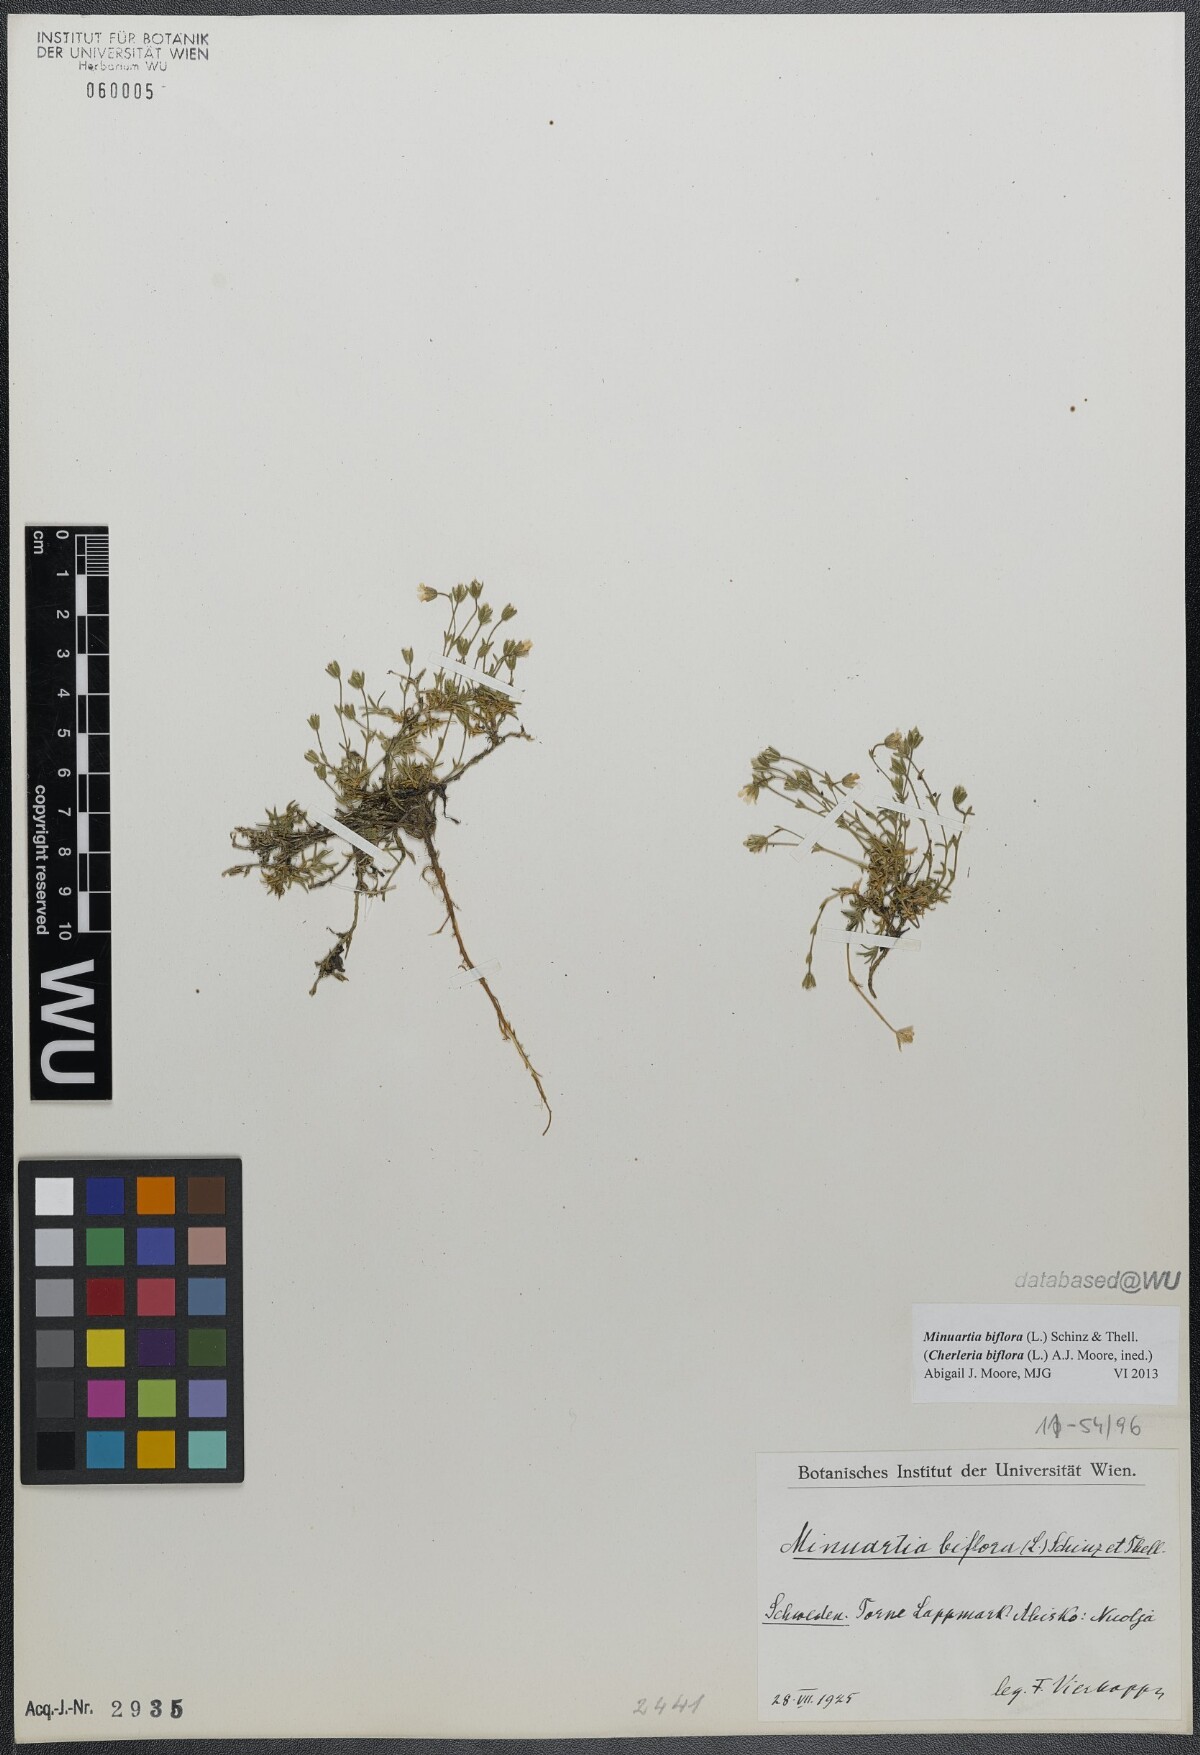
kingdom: Plantae
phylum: Tracheophyta
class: Magnoliopsida
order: Caryophyllales
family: Caryophyllaceae
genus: Cherleria
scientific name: Cherleria biflora
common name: Mountain sandwort
